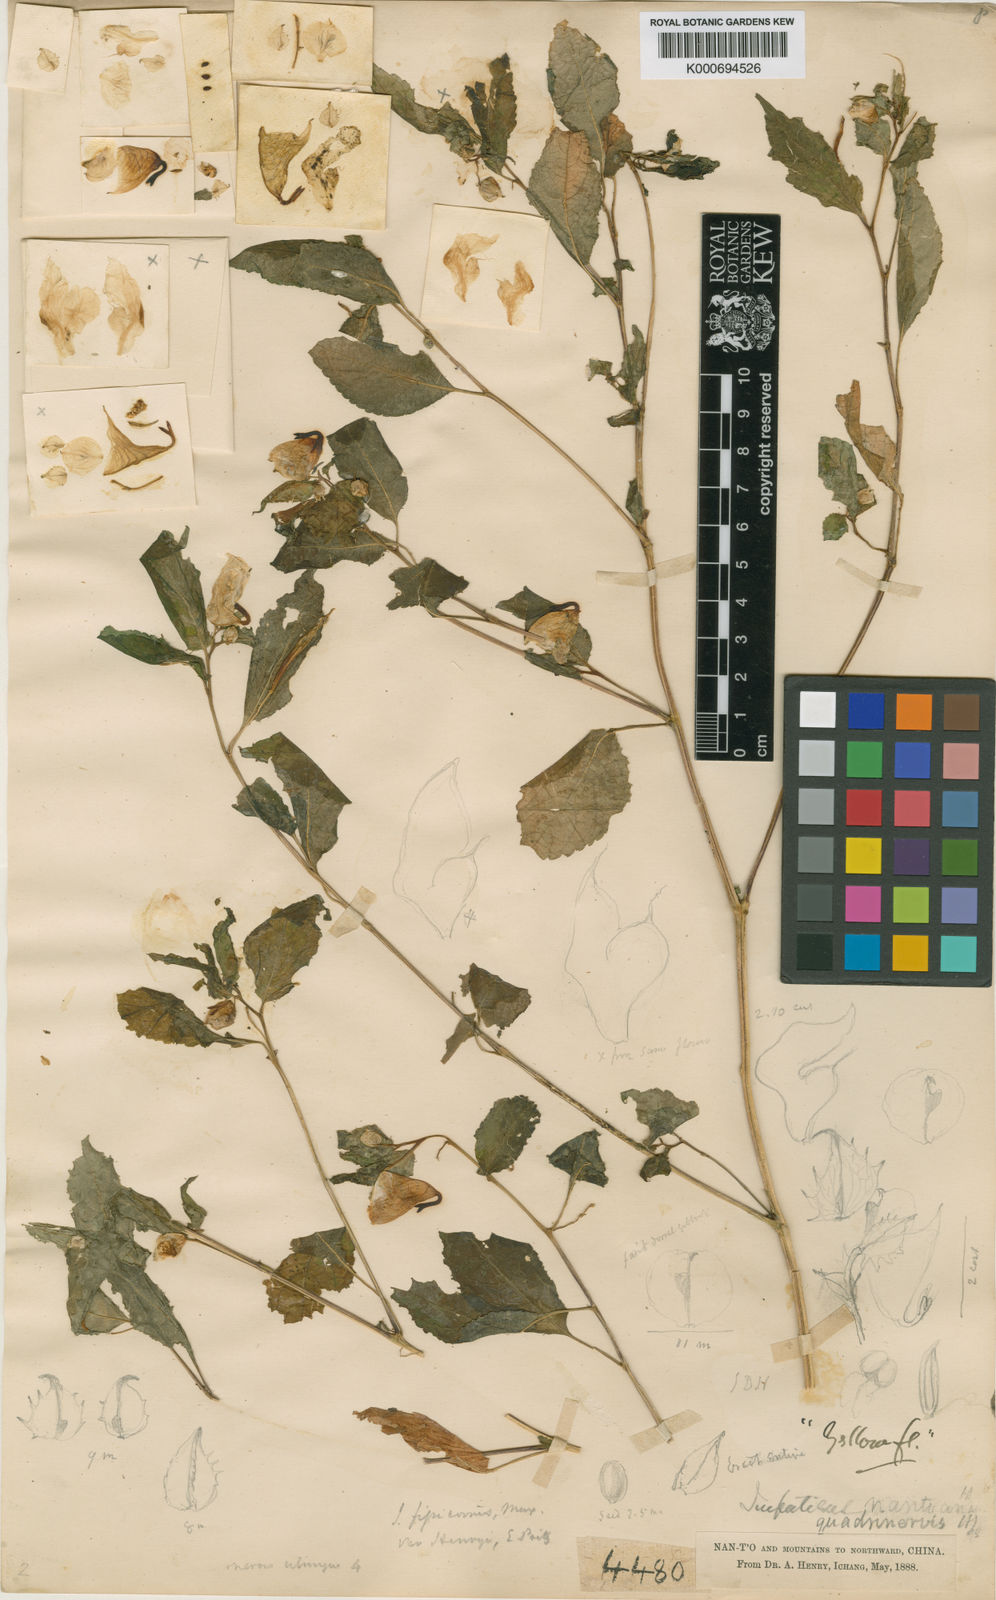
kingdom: Plantae
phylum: Tracheophyta
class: Magnoliopsida
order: Ericales
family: Balsaminaceae
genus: Impatiens
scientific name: Impatiens
